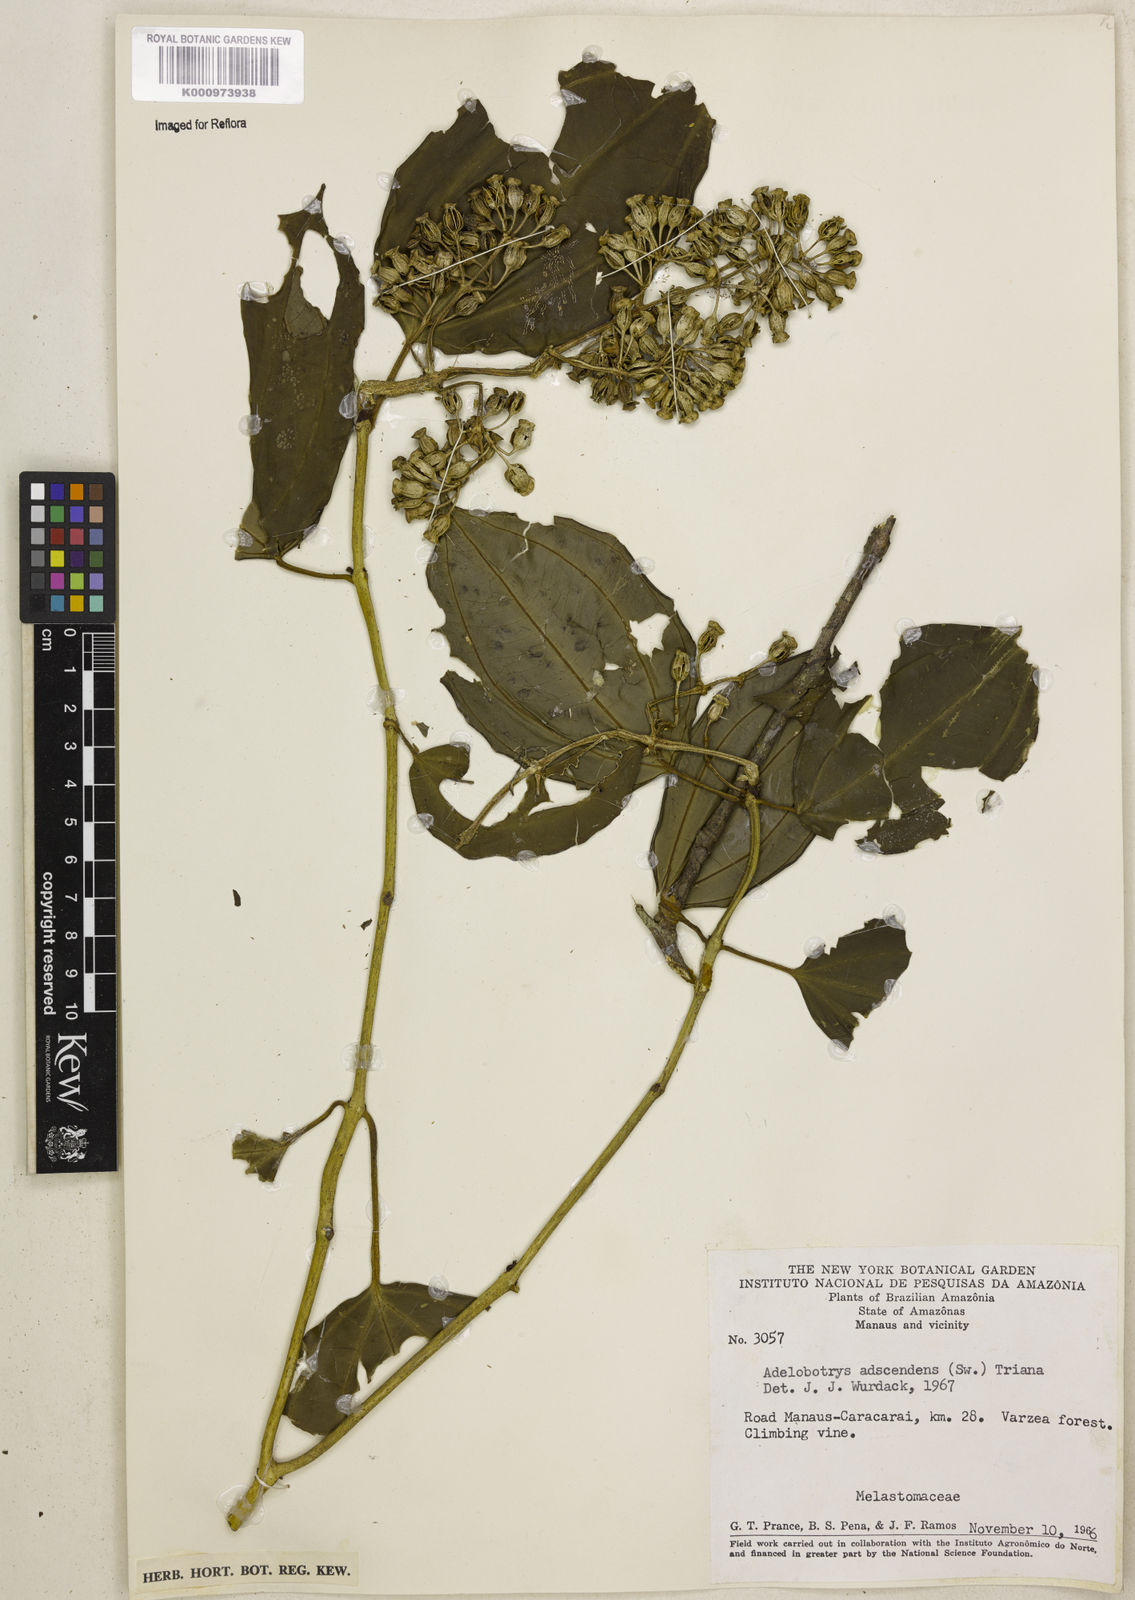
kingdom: Plantae
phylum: Tracheophyta
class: Magnoliopsida
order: Myrtales
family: Melastomataceae
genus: Adelobotrys
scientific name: Adelobotrys adscendens
